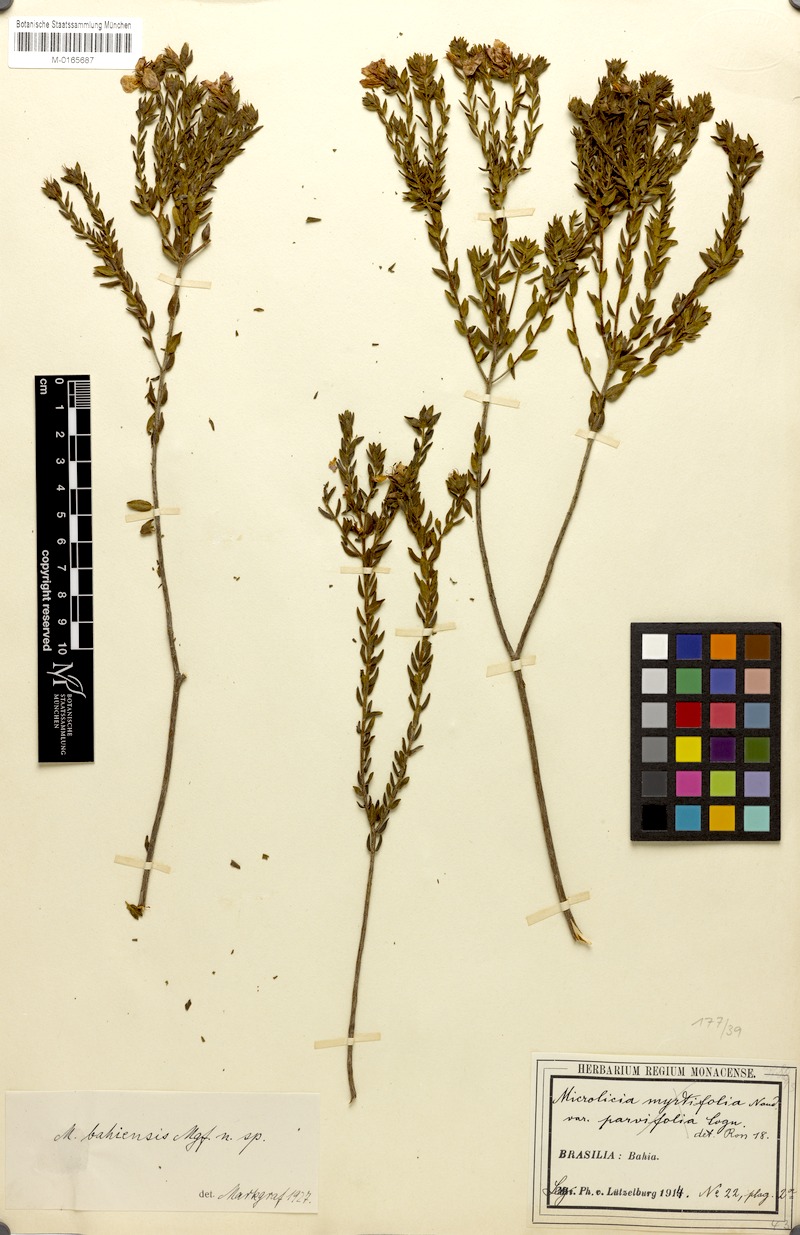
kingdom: Plantae
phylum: Tracheophyta
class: Magnoliopsida
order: Myrtales
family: Melastomataceae
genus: Microlicia
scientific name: Microlicia bahiensis
